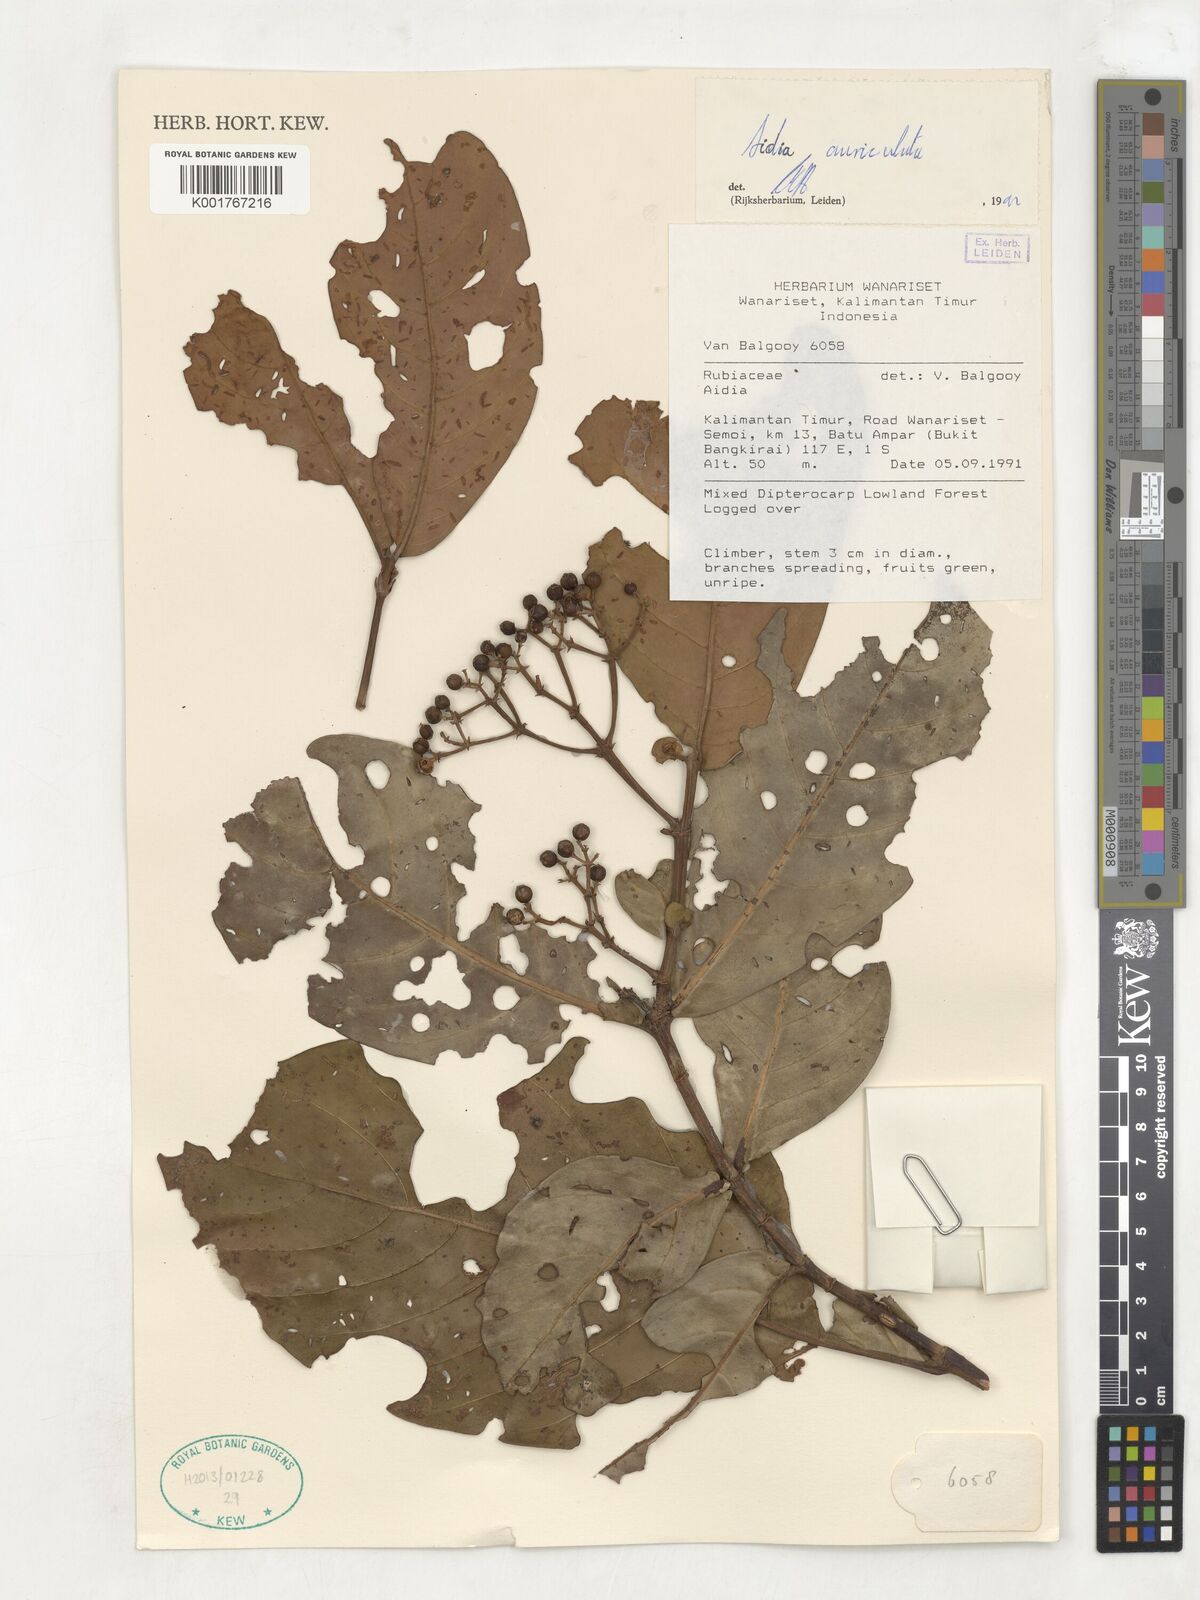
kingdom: Plantae
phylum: Tracheophyta
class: Magnoliopsida
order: Gentianales
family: Rubiaceae
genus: Aidia
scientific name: Aidia auriculata
